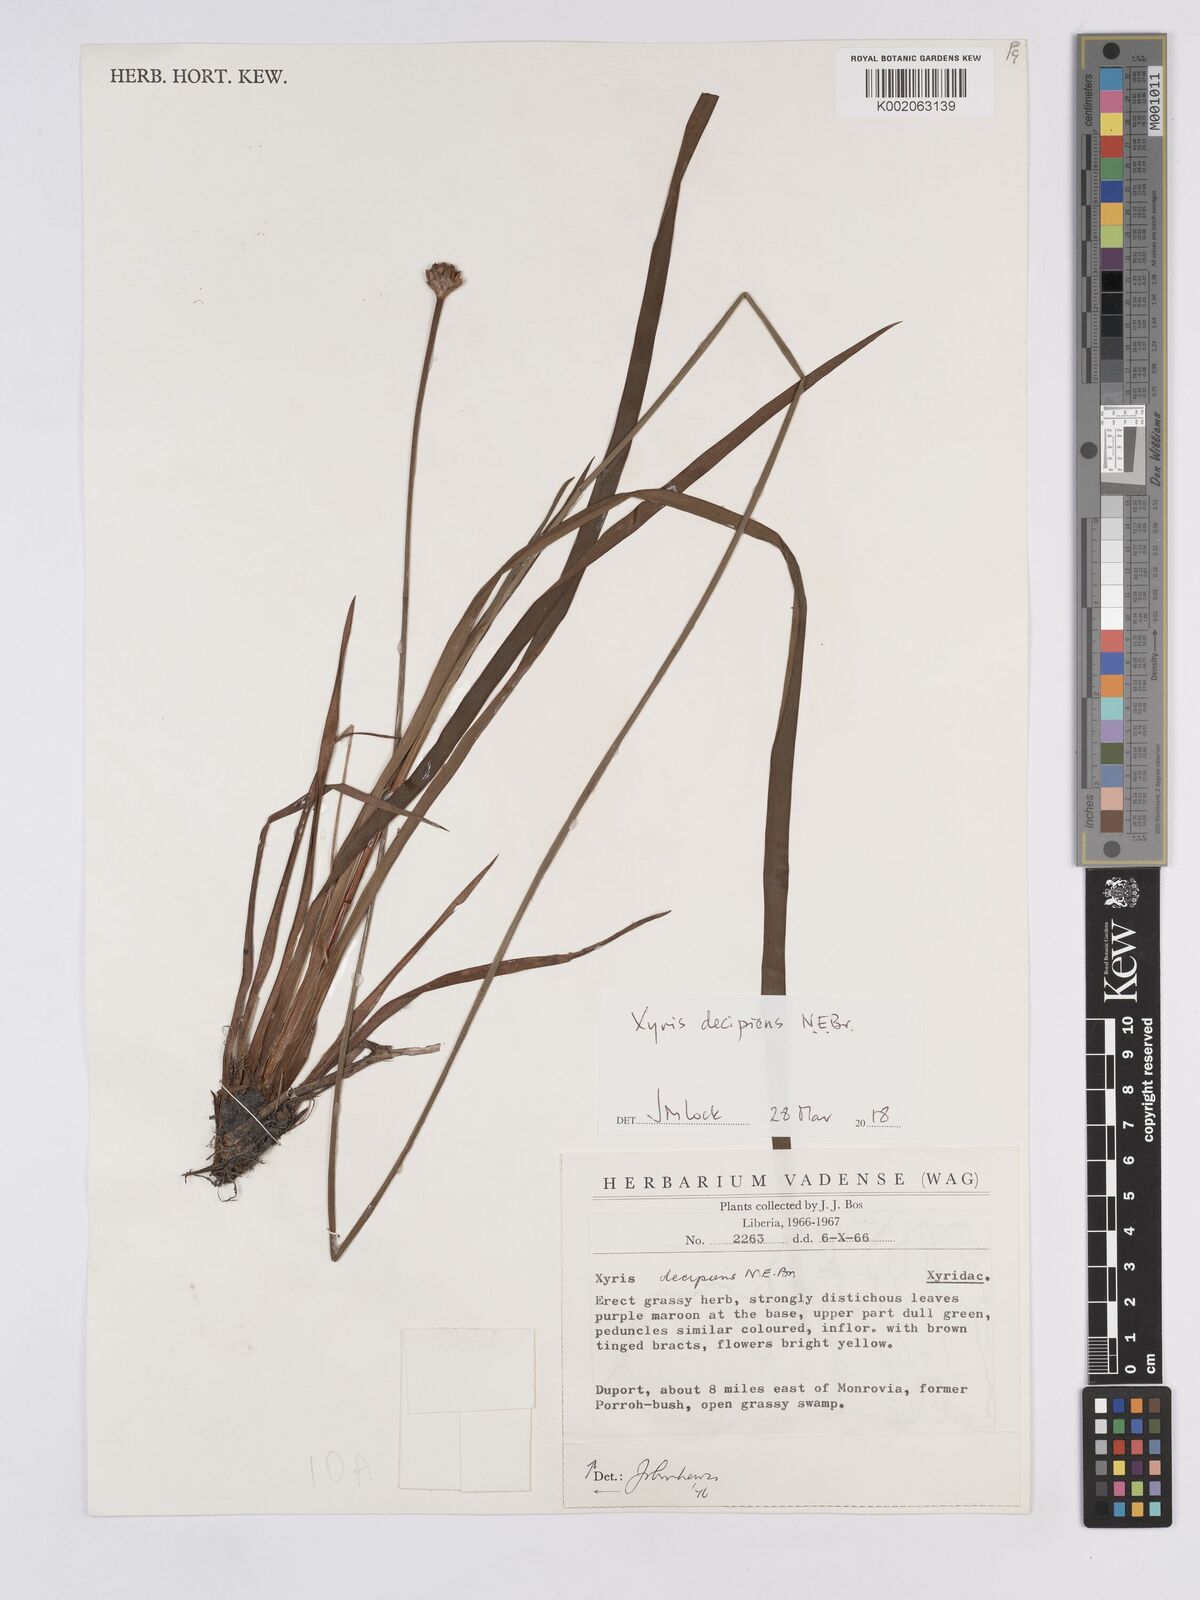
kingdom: Plantae
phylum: Tracheophyta
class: Liliopsida
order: Poales
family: Xyridaceae
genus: Xyris
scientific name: Xyris decipiens
